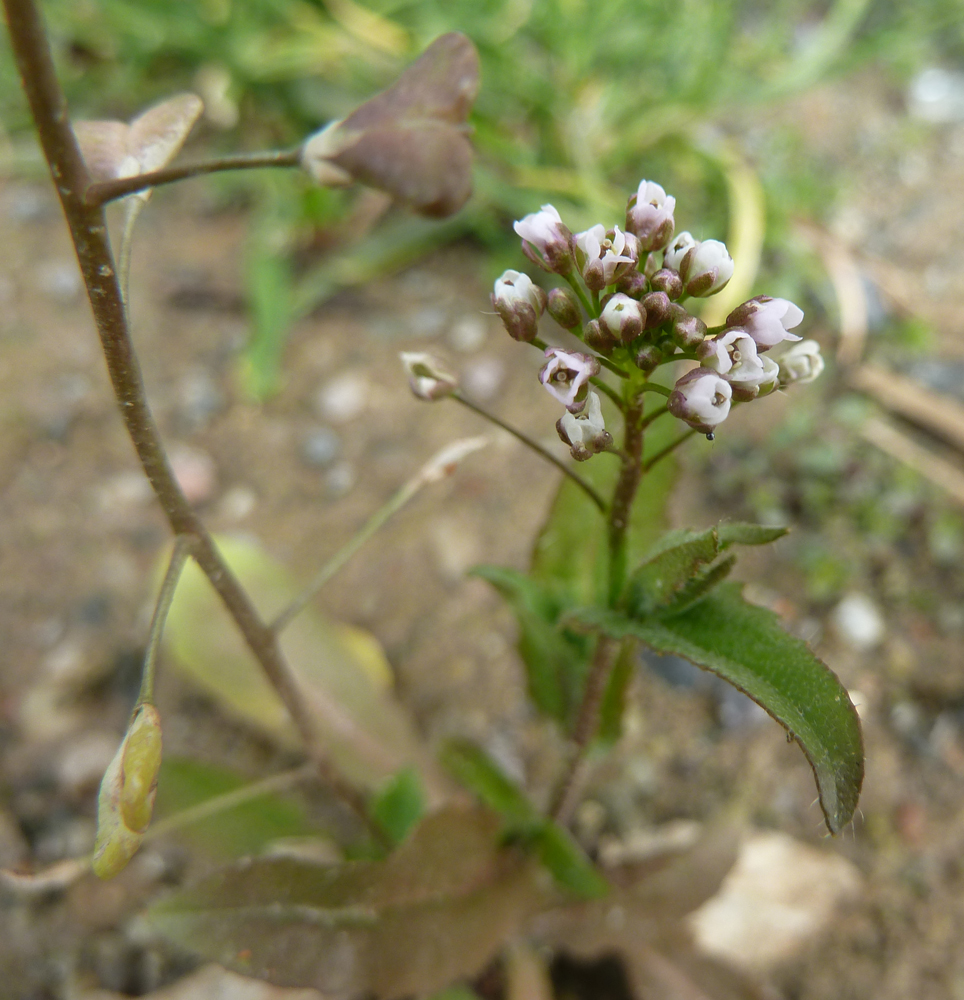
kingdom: Plantae
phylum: Tracheophyta
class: Magnoliopsida
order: Brassicales
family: Brassicaceae
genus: Capsella
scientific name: Capsella bursa-pastoris
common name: Shepherd's purse
